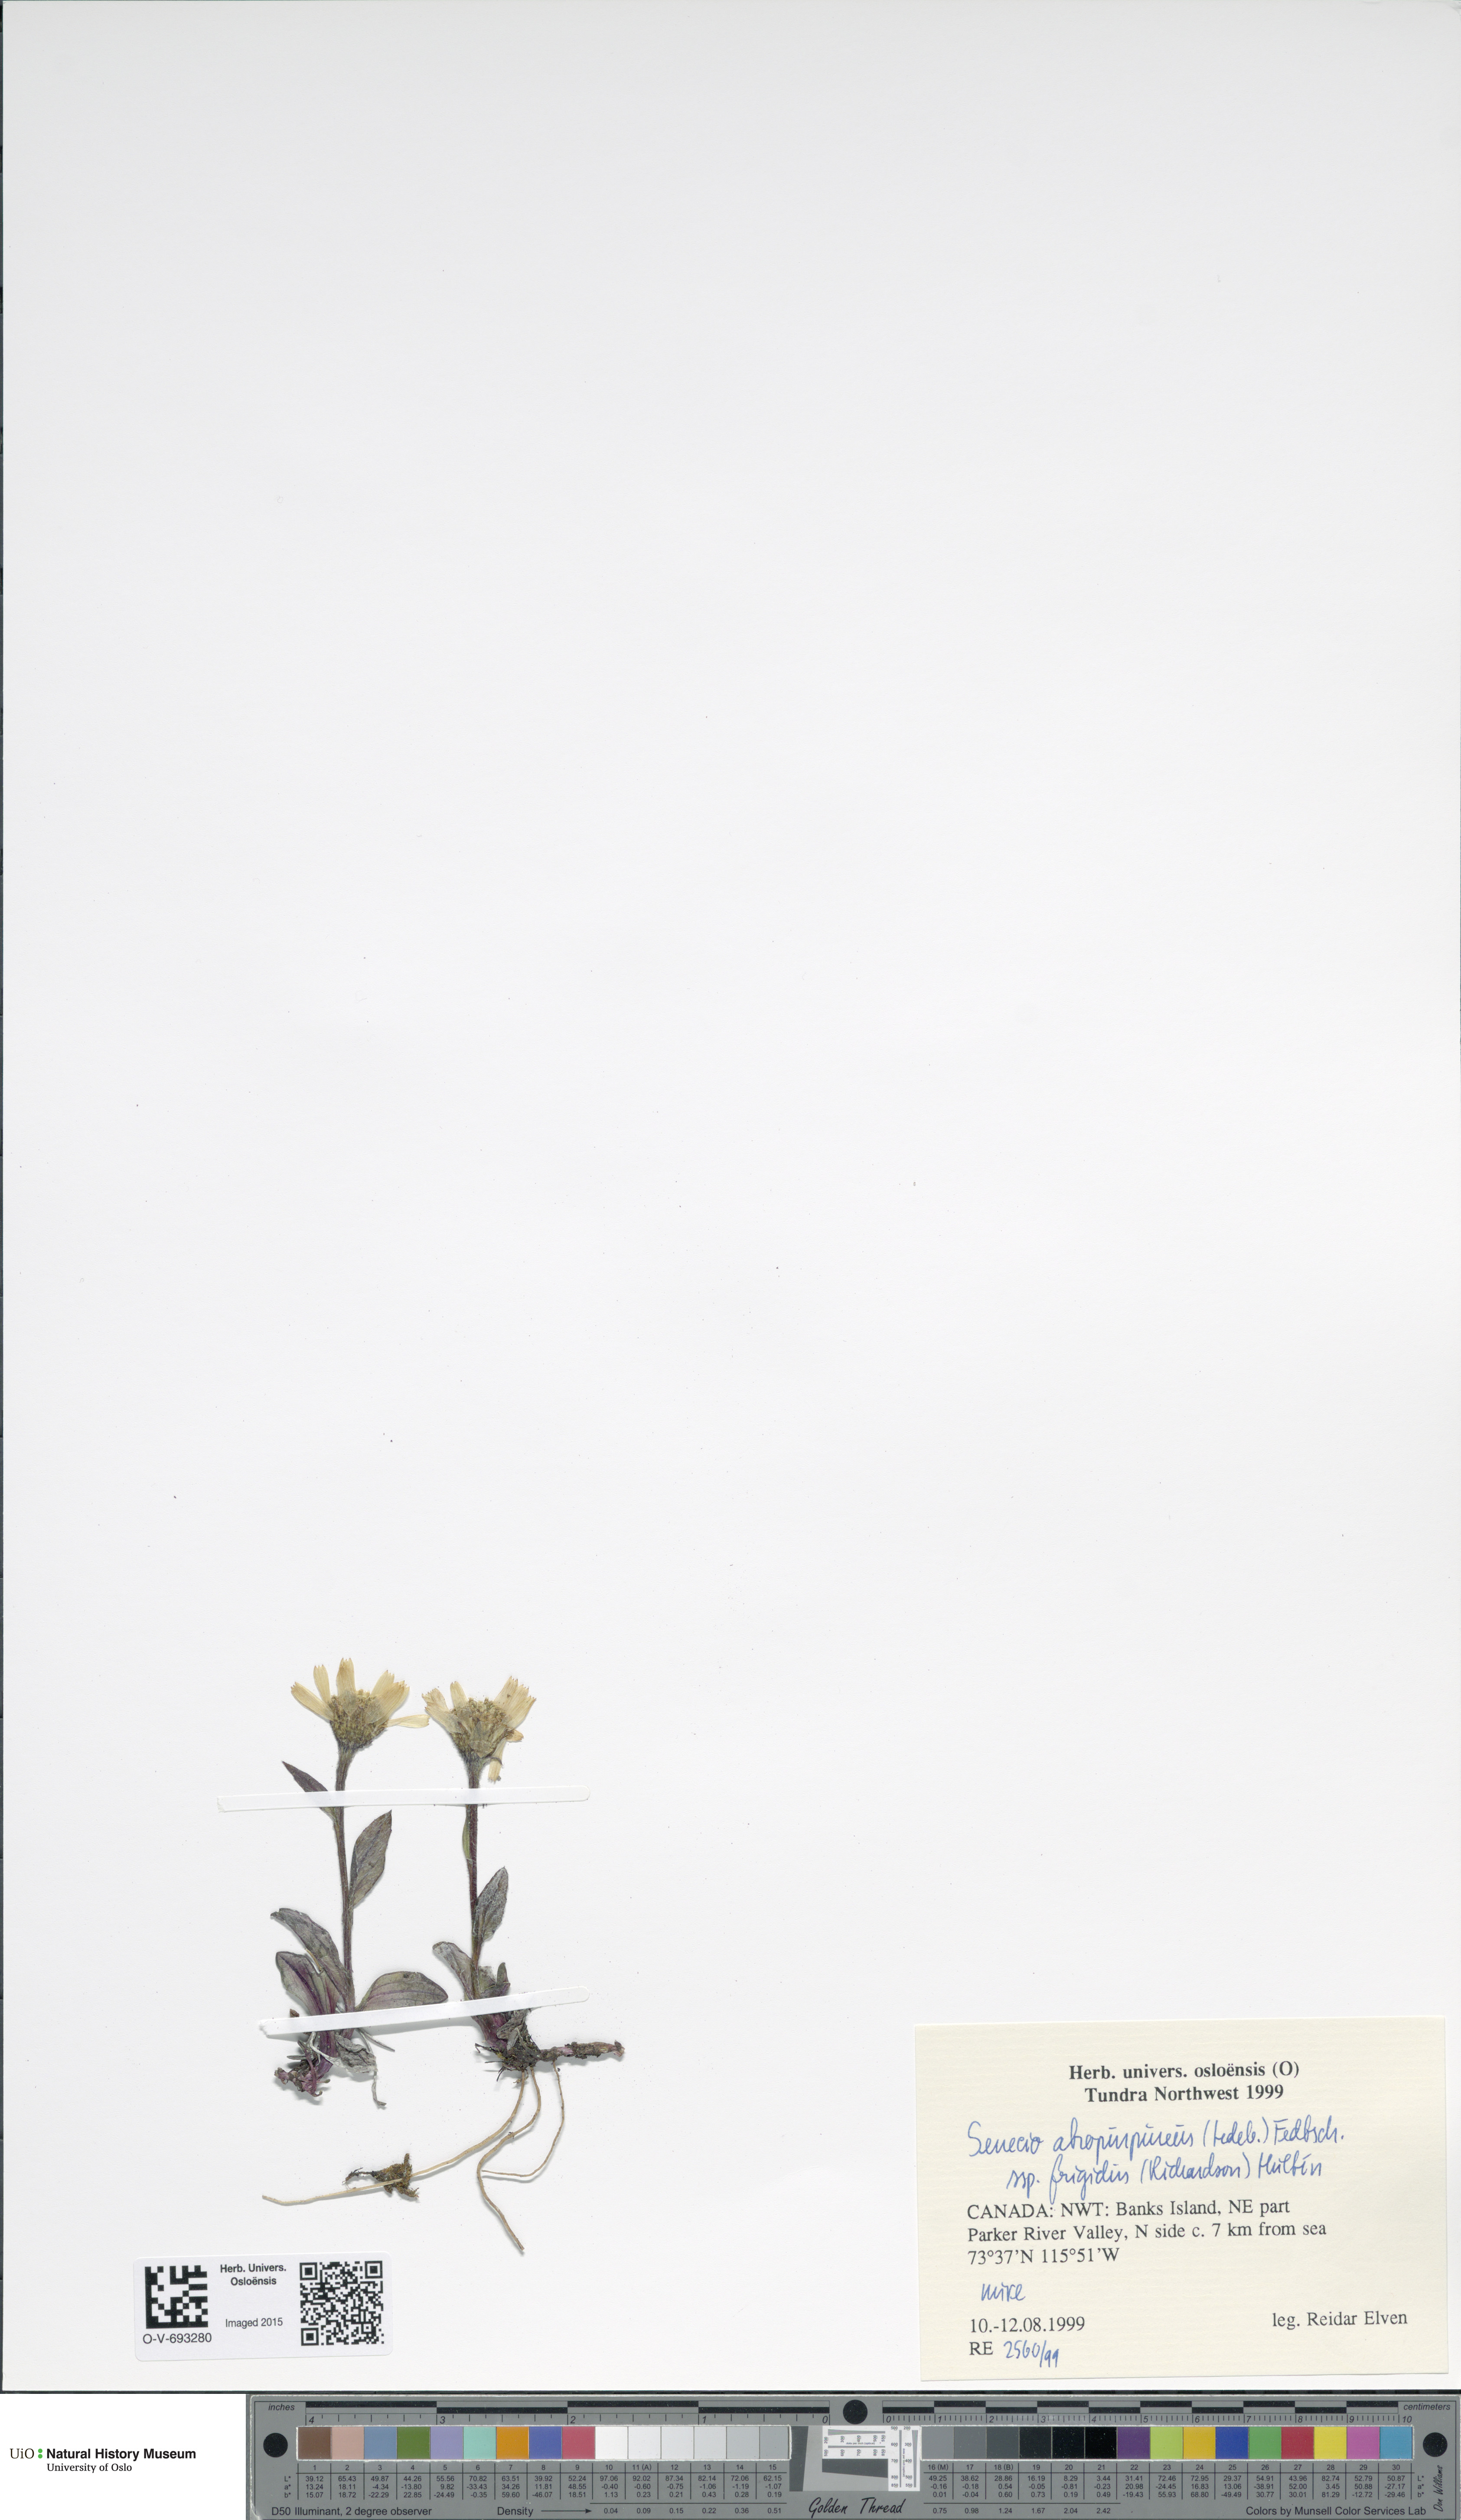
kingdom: Plantae
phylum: Tracheophyta
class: Magnoliopsida
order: Asterales
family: Asteraceae
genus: Tephroseris
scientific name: Tephroseris integrifolia
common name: Field fleawort
